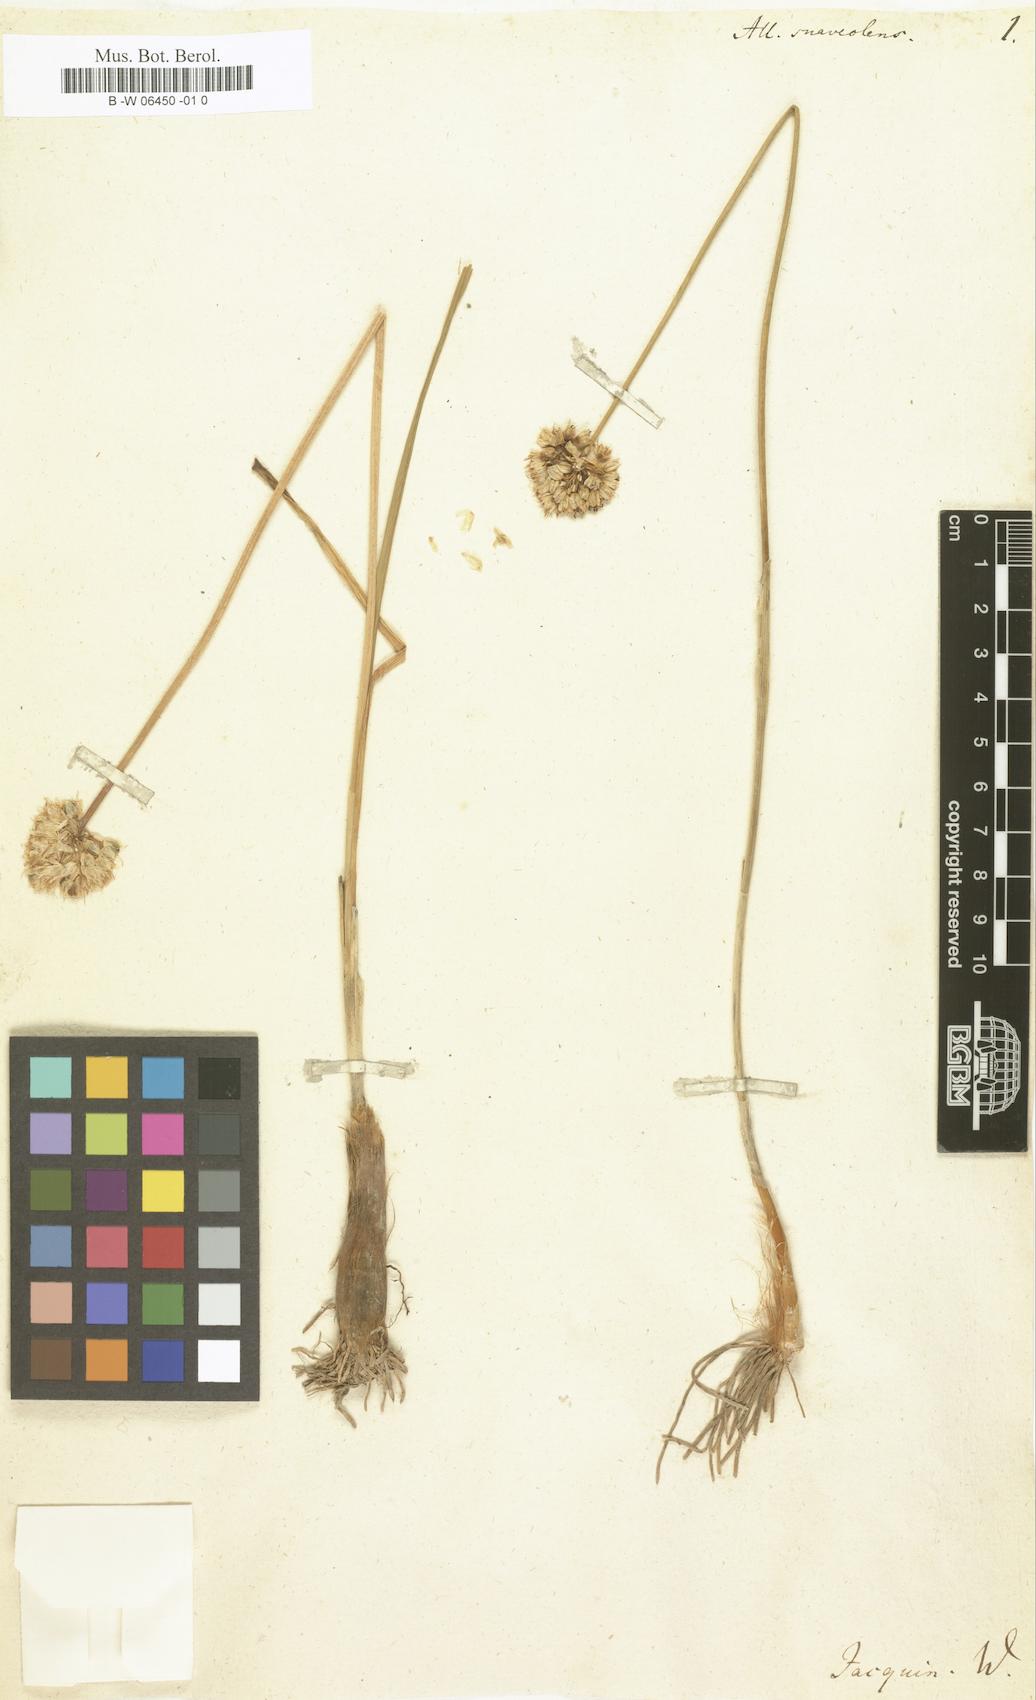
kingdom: Plantae
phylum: Tracheophyta
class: Liliopsida
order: Asparagales
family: Amaryllidaceae
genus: Allium
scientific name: Allium suaveolens
